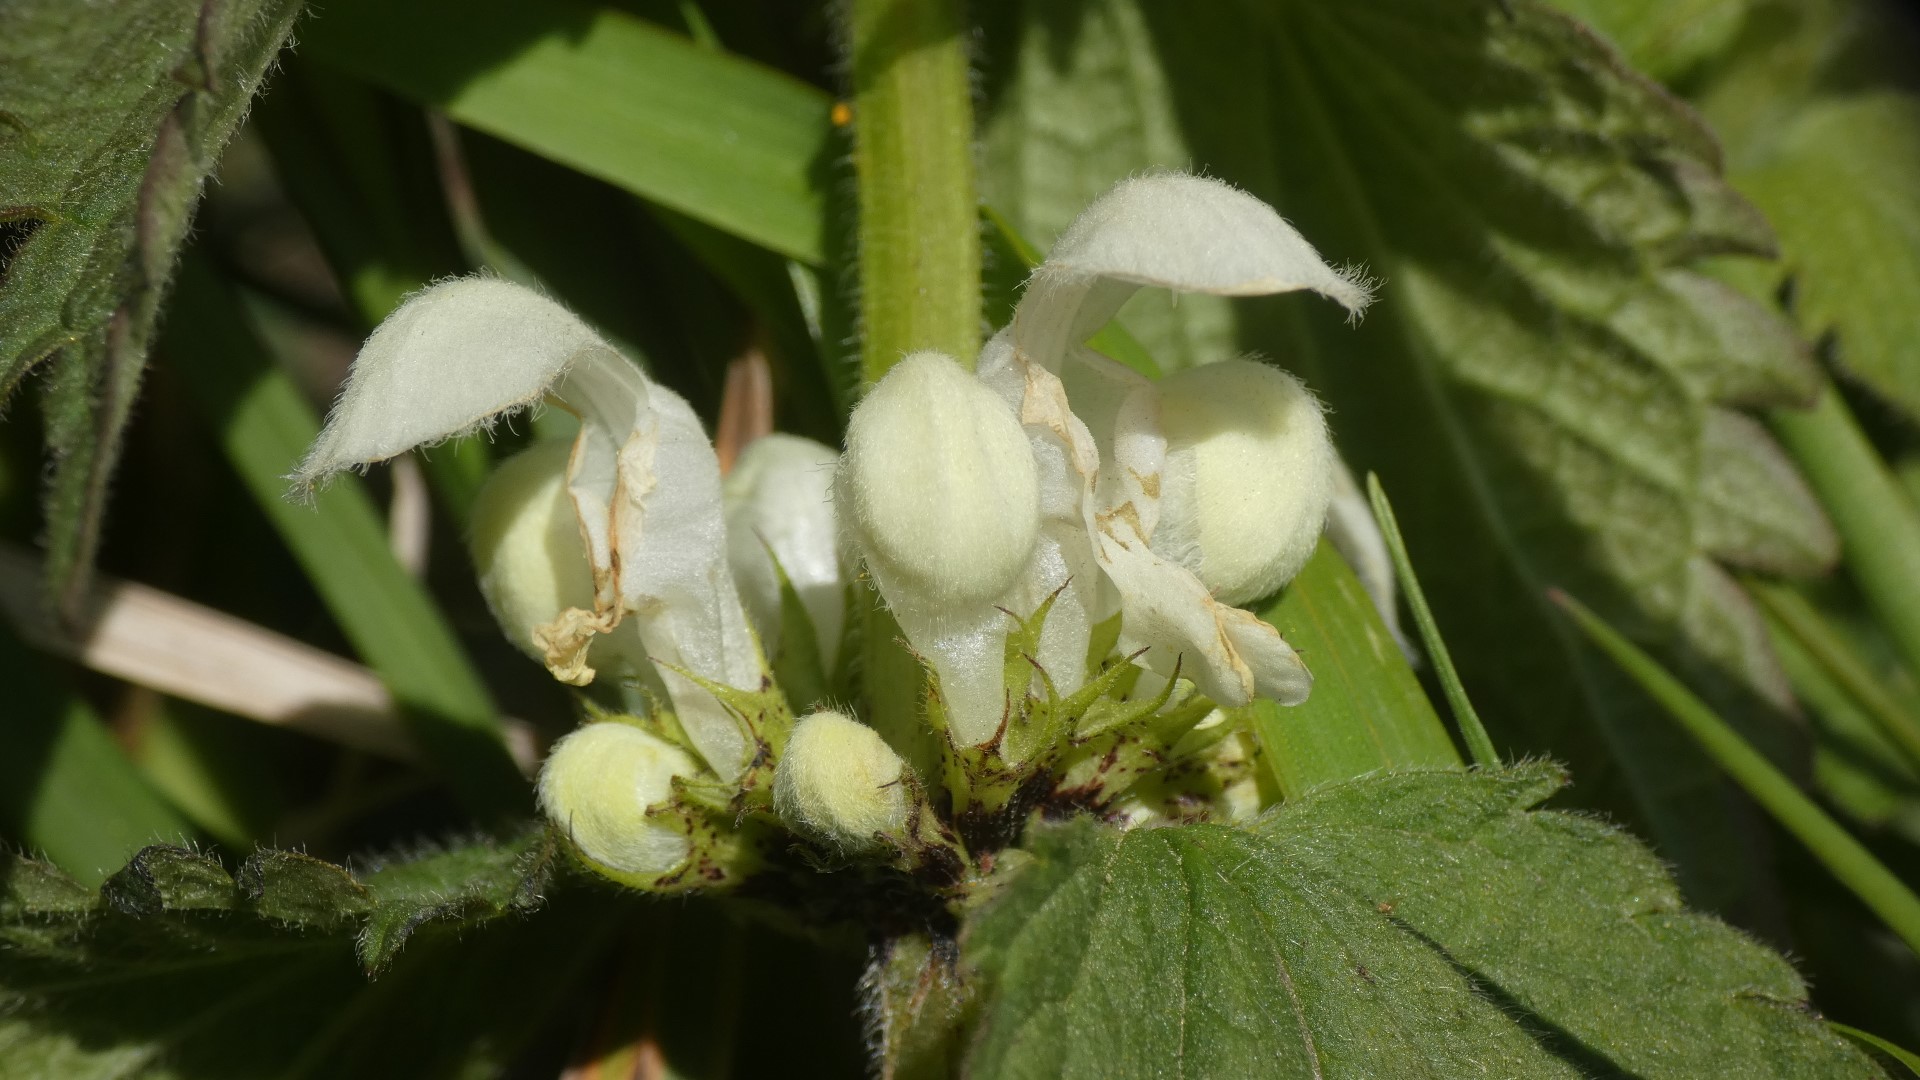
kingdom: Plantae
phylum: Tracheophyta
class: Magnoliopsida
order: Lamiales
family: Lamiaceae
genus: Lamium
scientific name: Lamium album
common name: Døvnælde
